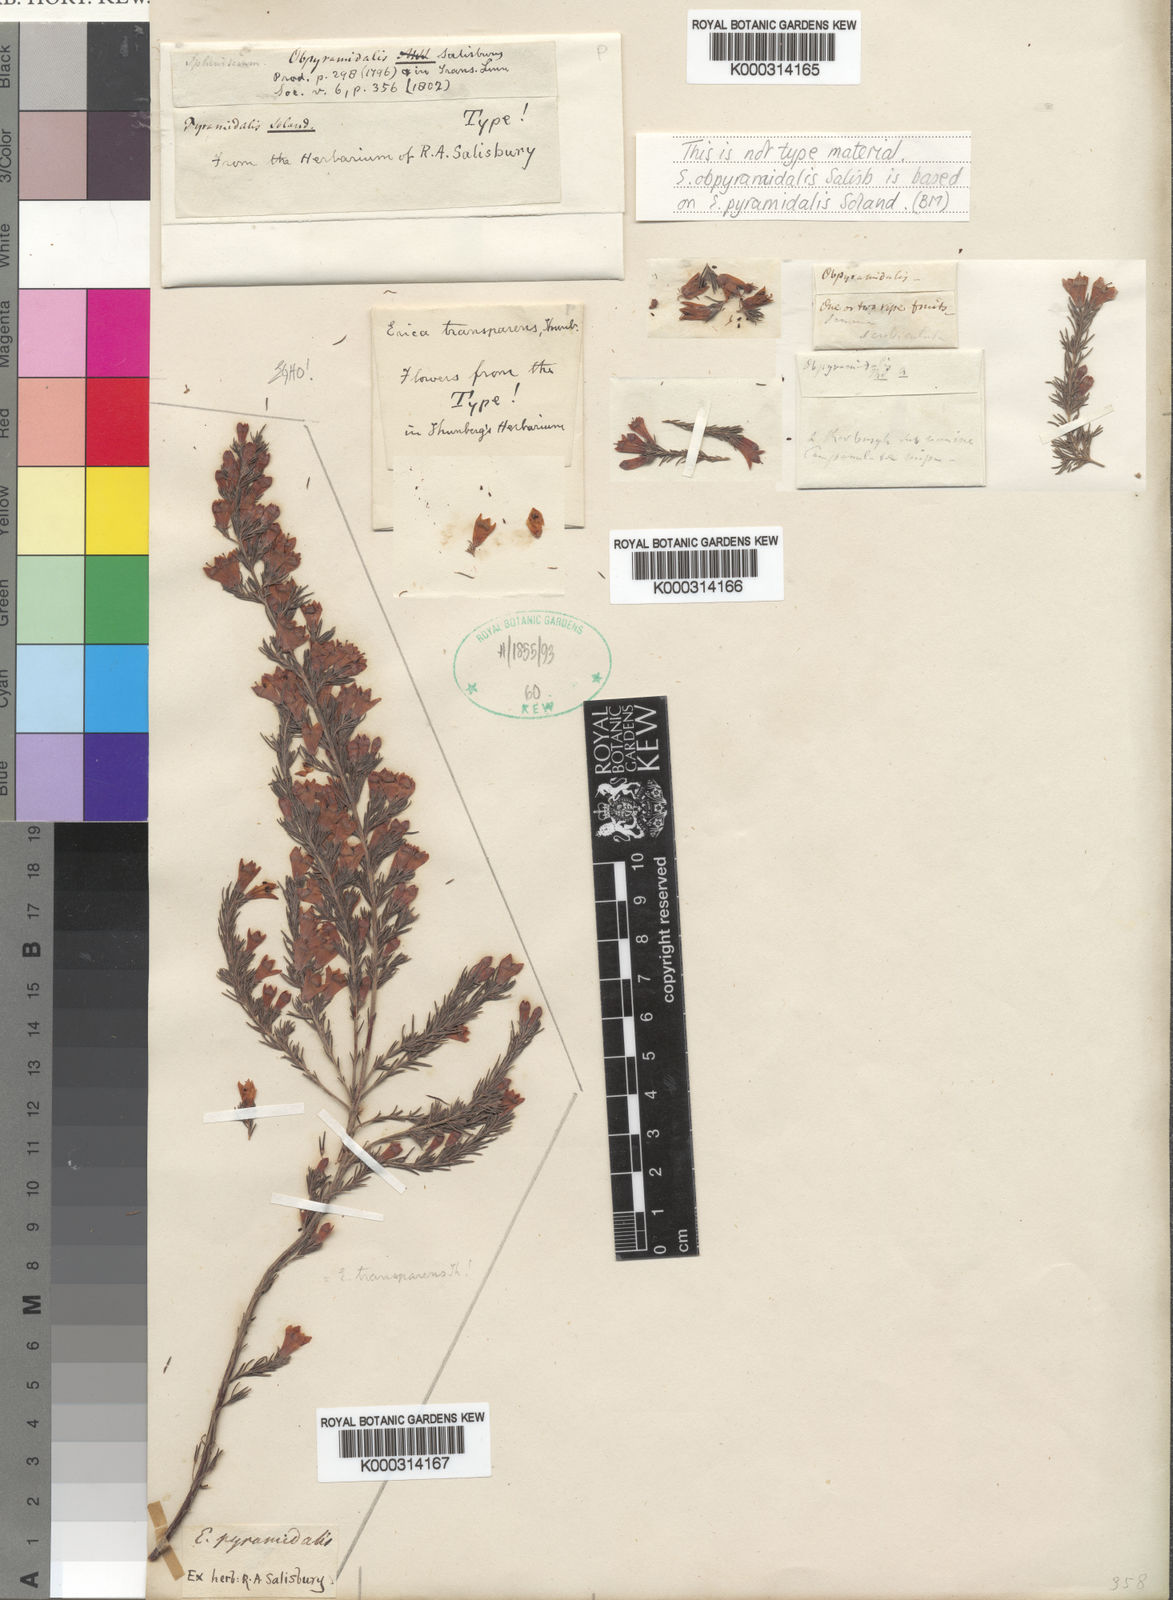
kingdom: Plantae
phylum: Tracheophyta
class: Magnoliopsida
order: Ericales
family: Ericaceae
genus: Erica
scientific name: Erica pyramidalis
